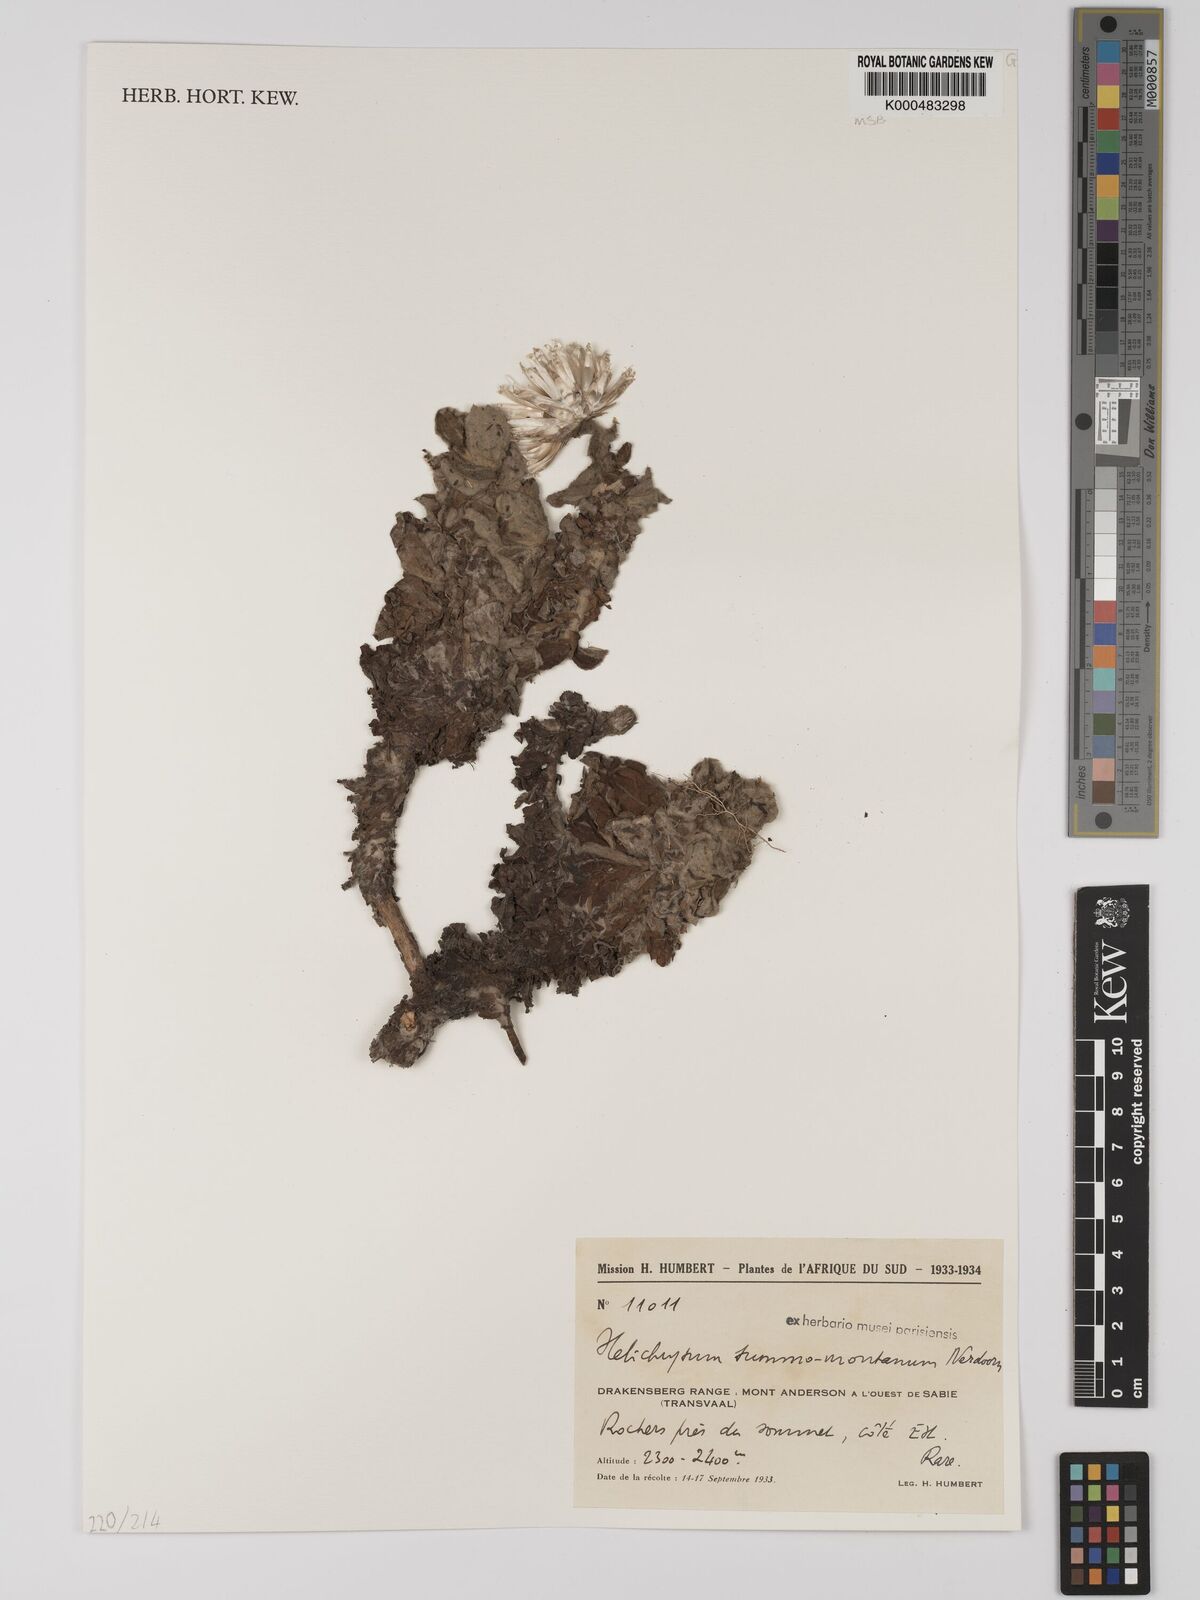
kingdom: Plantae
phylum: Tracheophyta
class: Magnoliopsida
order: Asterales
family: Asteraceae
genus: Helichrysum
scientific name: Helichrysum summo-montanum
